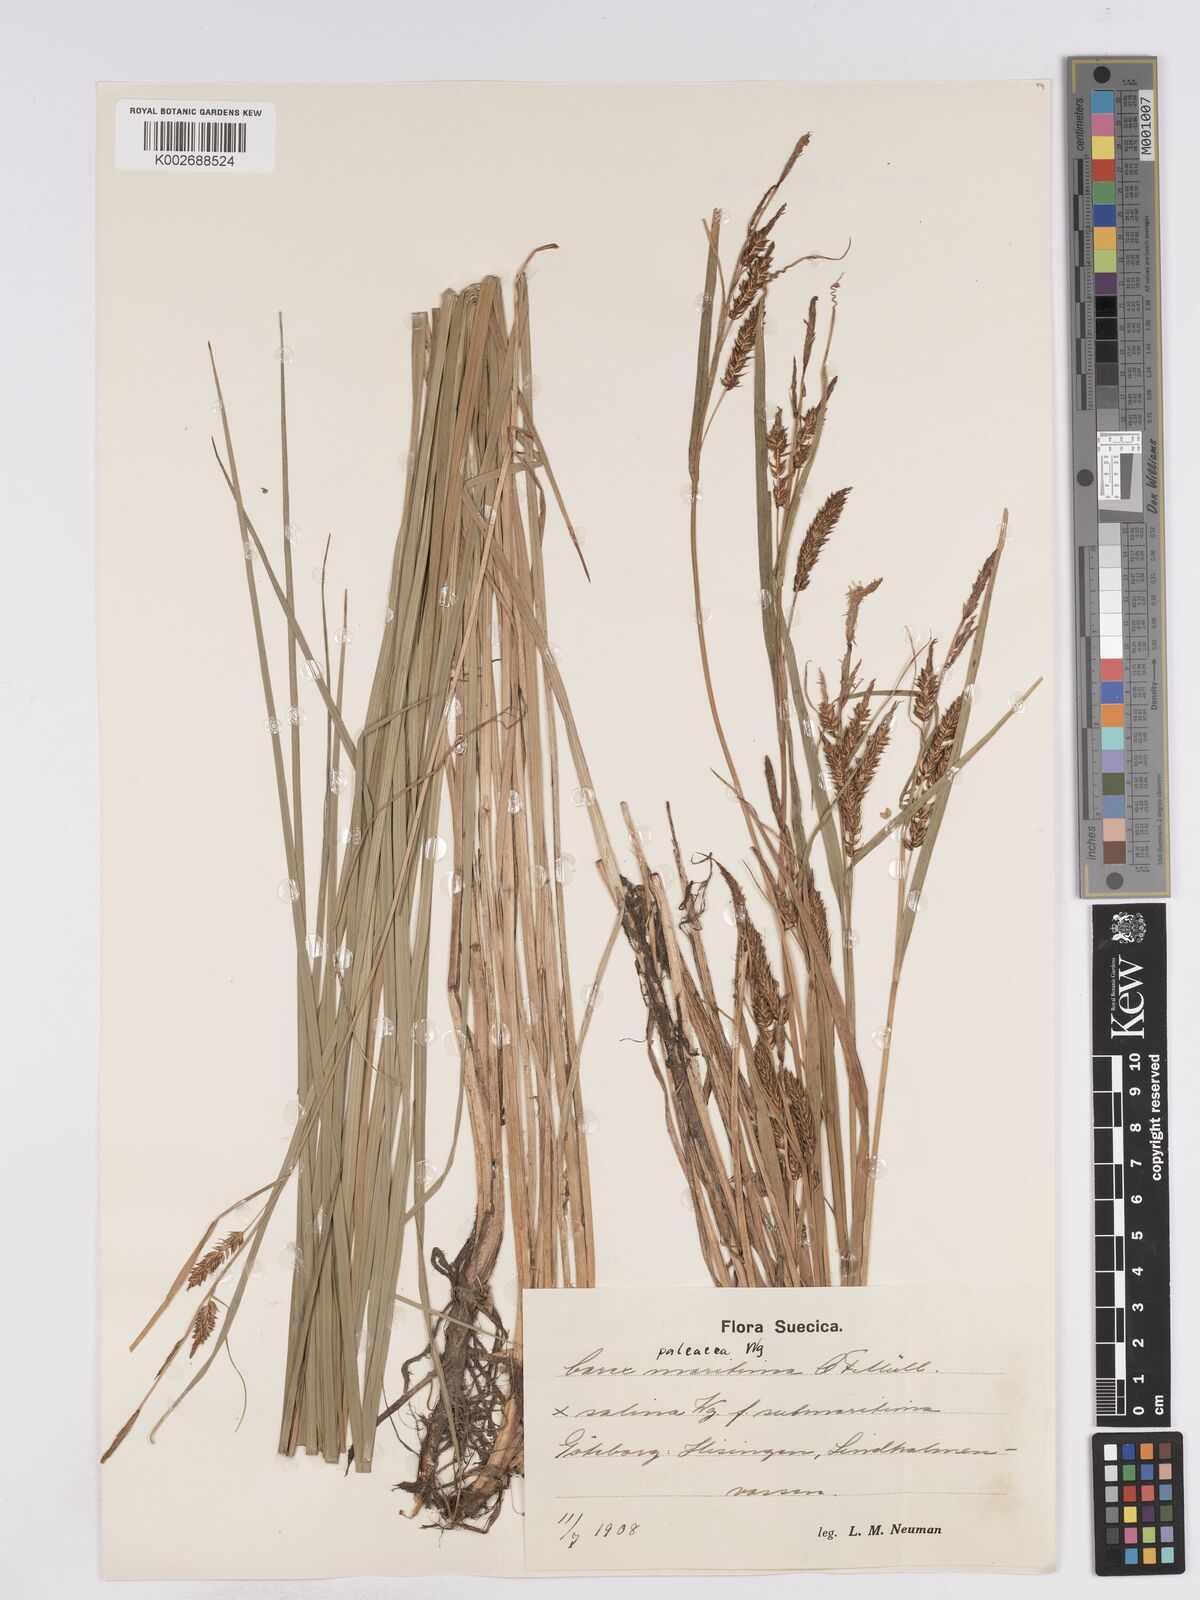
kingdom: Plantae
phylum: Tracheophyta
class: Liliopsida
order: Poales
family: Cyperaceae
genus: Carex
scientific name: Carex recta
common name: Estuarine sedge
